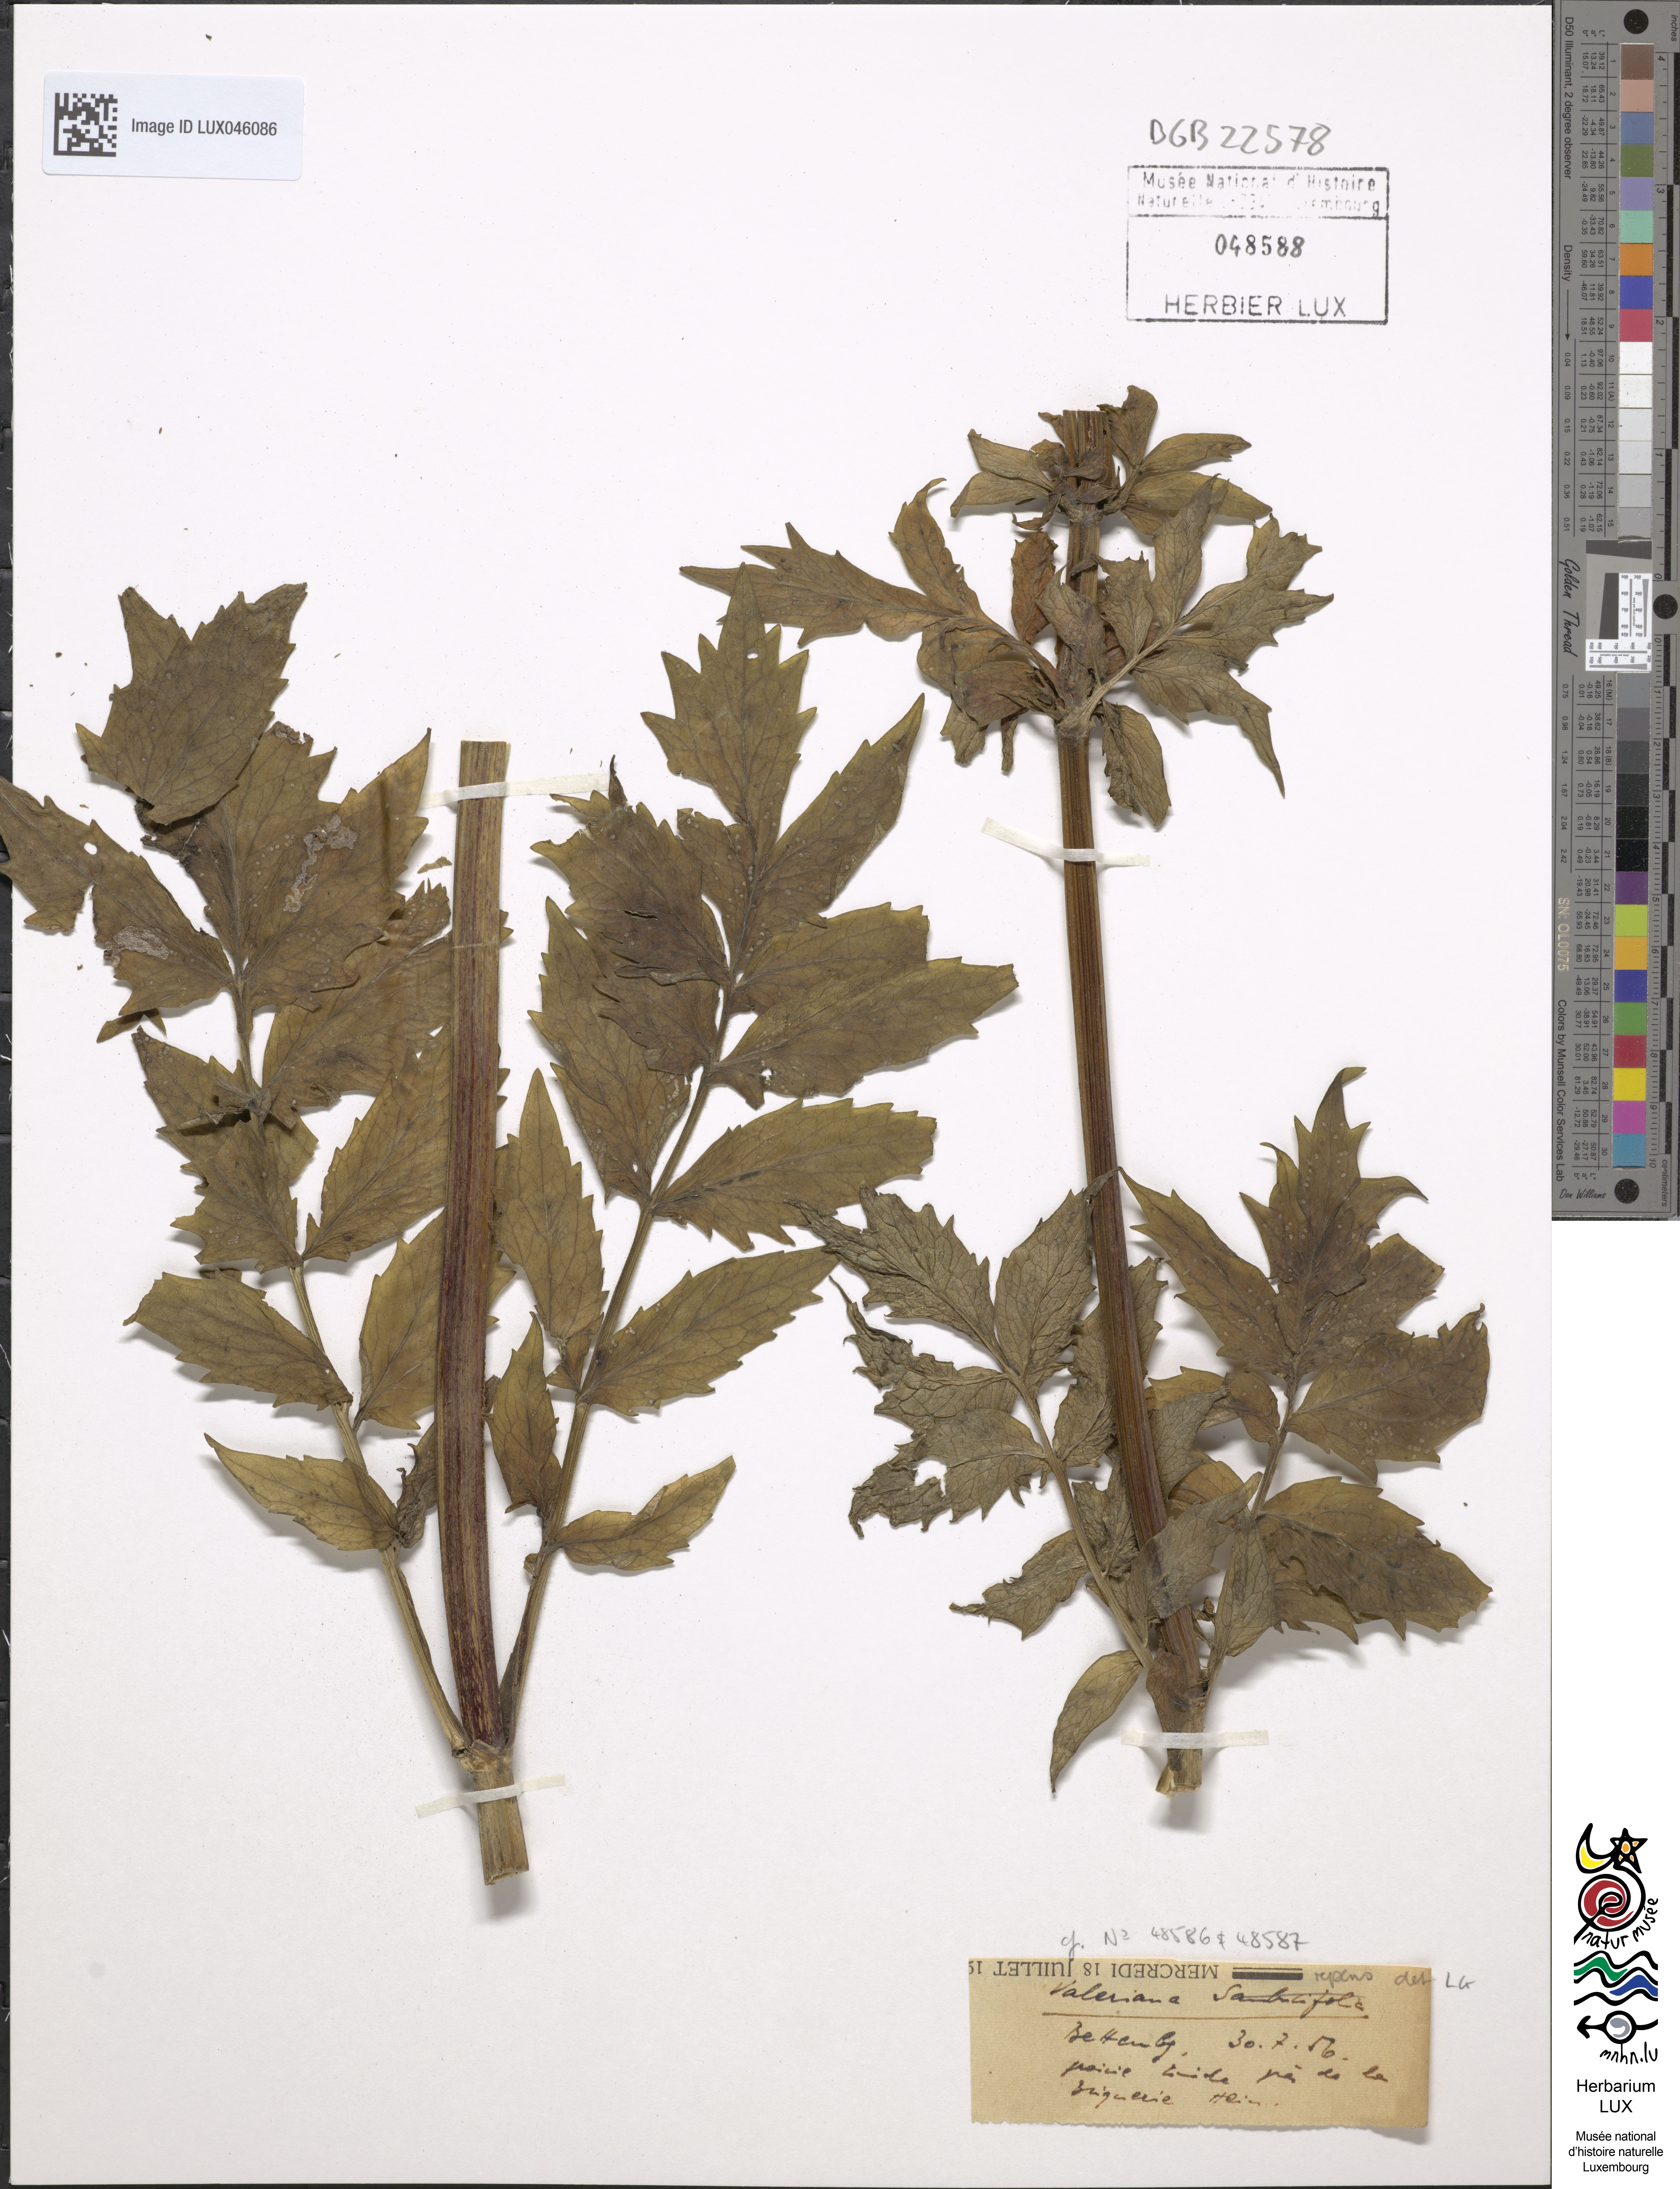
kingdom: Plantae
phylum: Tracheophyta
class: Magnoliopsida
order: Dipsacales
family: Caprifoliaceae
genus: Valeriana
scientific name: Valeriana excelsa
